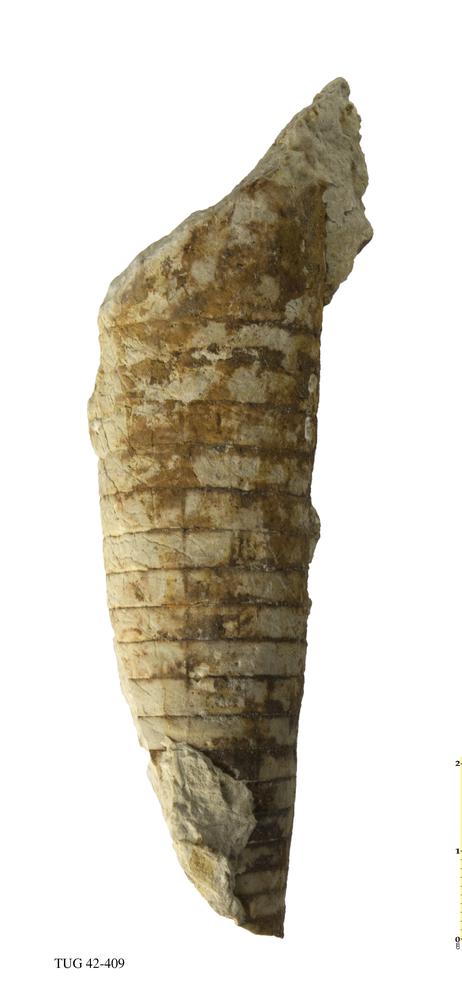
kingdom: Animalia
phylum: Mollusca
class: Cephalopoda
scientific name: Cephalopoda
